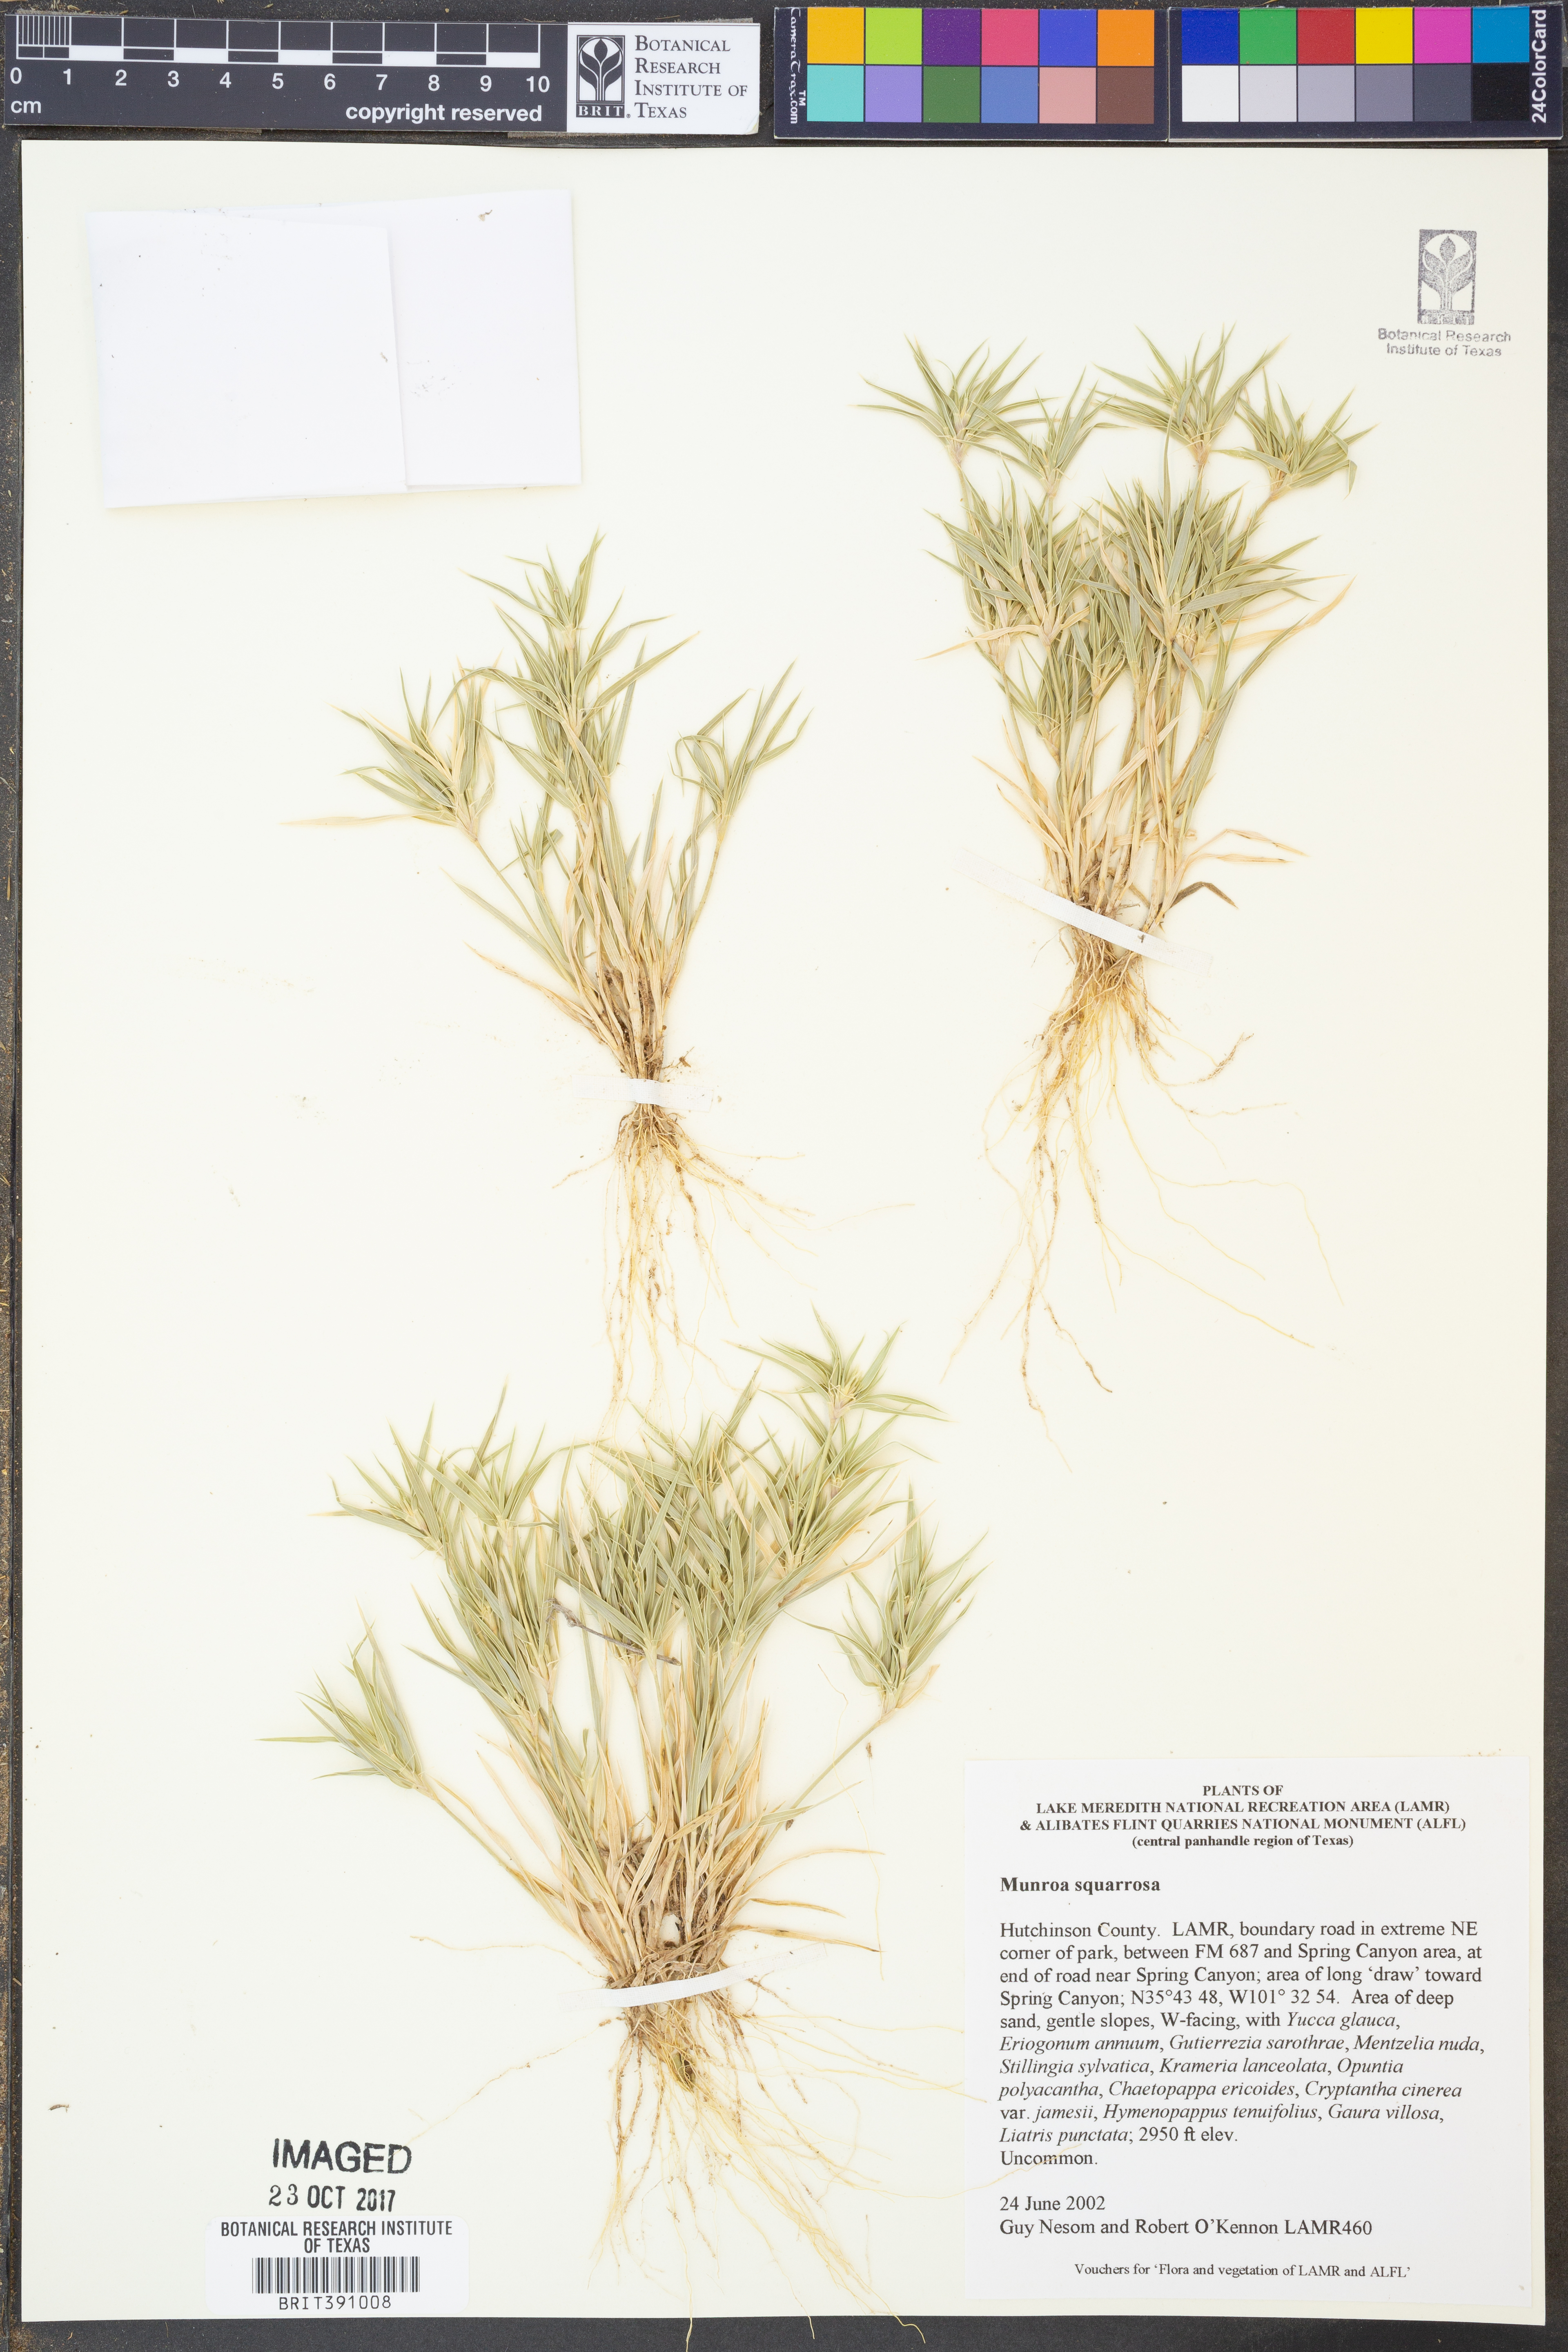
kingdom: Plantae
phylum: Tracheophyta
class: Liliopsida
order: Poales
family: Poaceae
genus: Munroa
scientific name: Munroa squarrosa
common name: False buffalo grass
